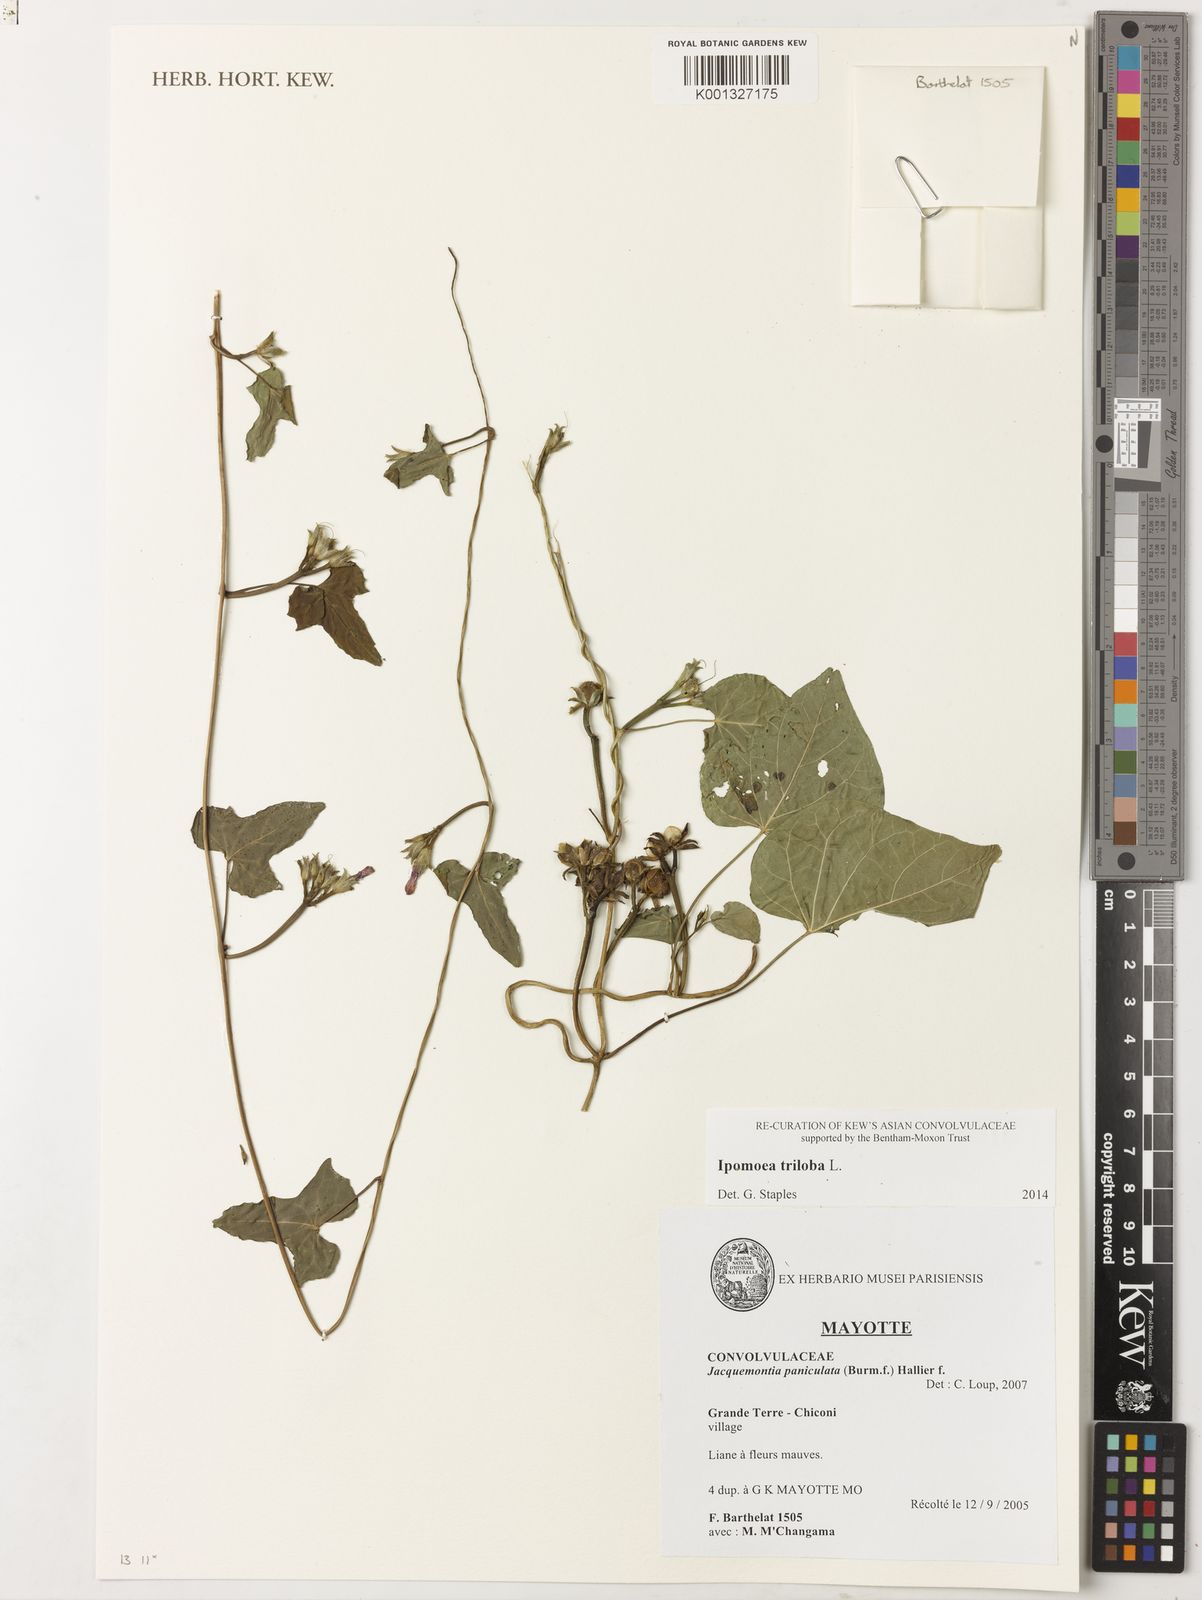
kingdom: Plantae
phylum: Tracheophyta
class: Magnoliopsida
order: Solanales
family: Convolvulaceae
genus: Ipomoea
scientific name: Ipomoea triloba
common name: Little-bell
